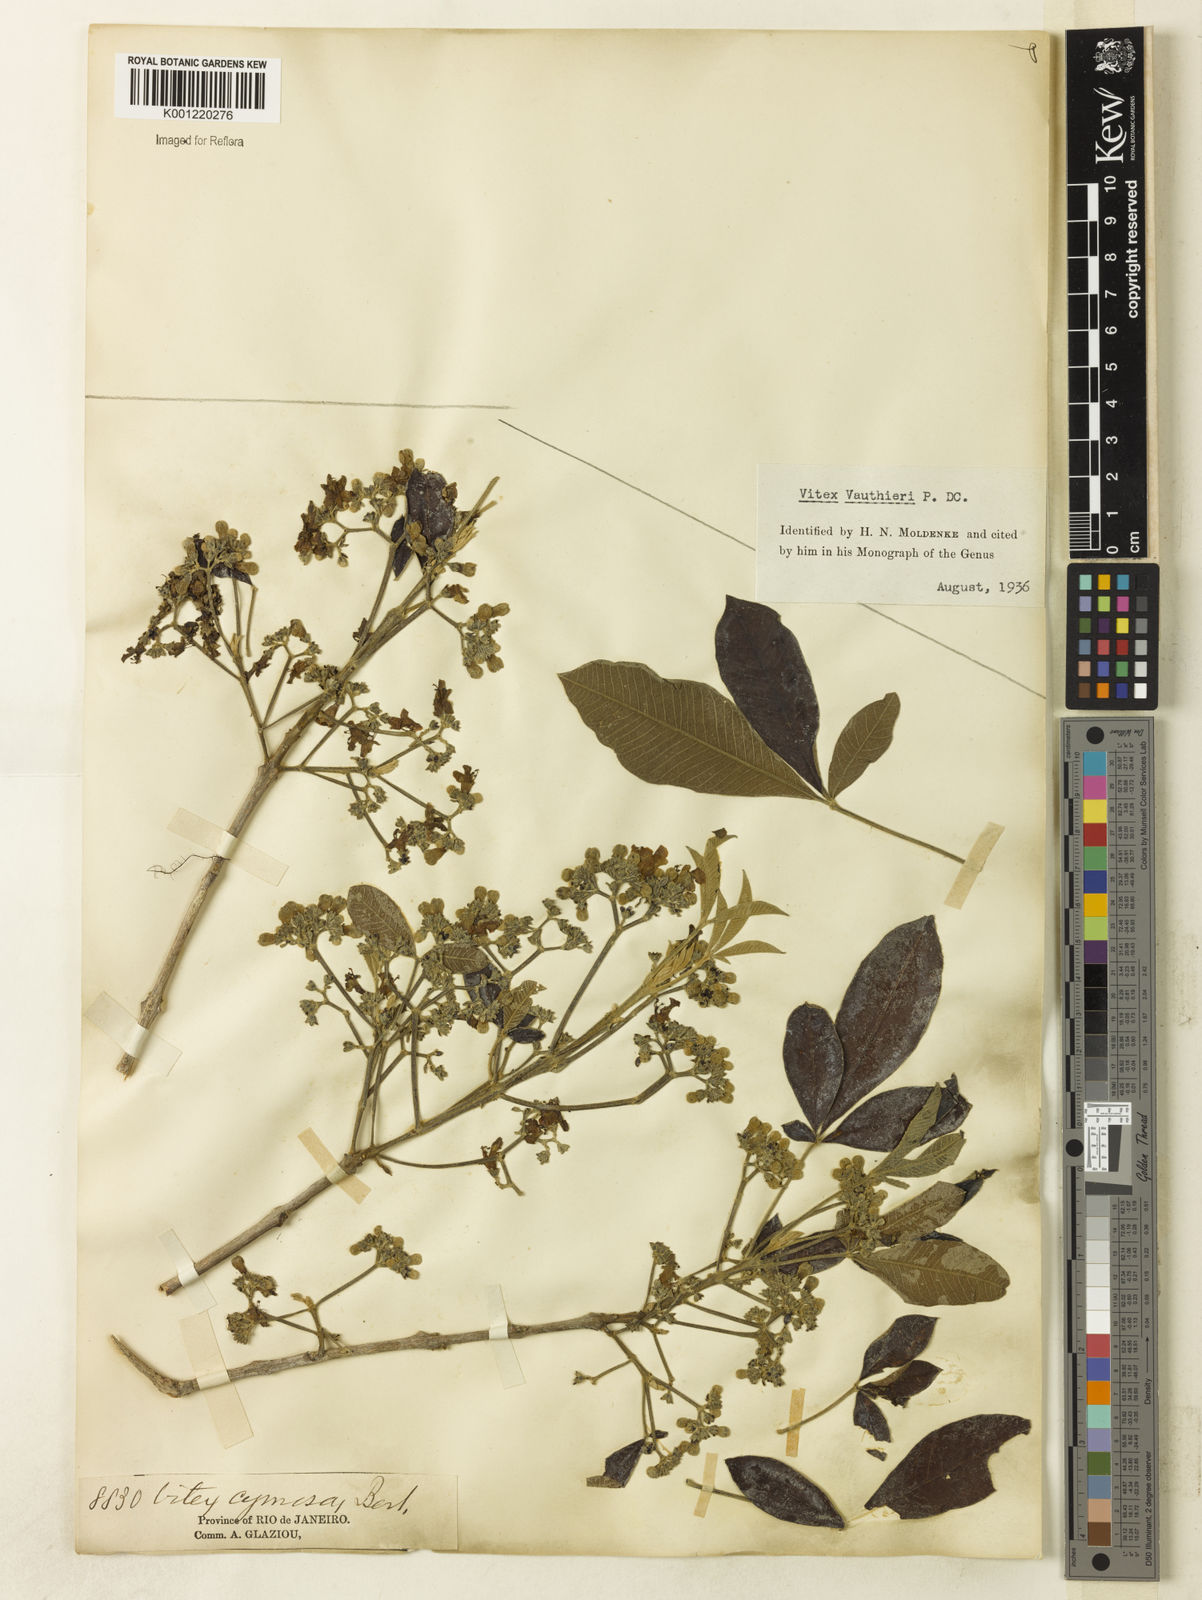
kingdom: Plantae
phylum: Tracheophyta
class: Magnoliopsida
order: Lamiales
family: Lamiaceae
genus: Vitex
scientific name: Vitex vauthieri
